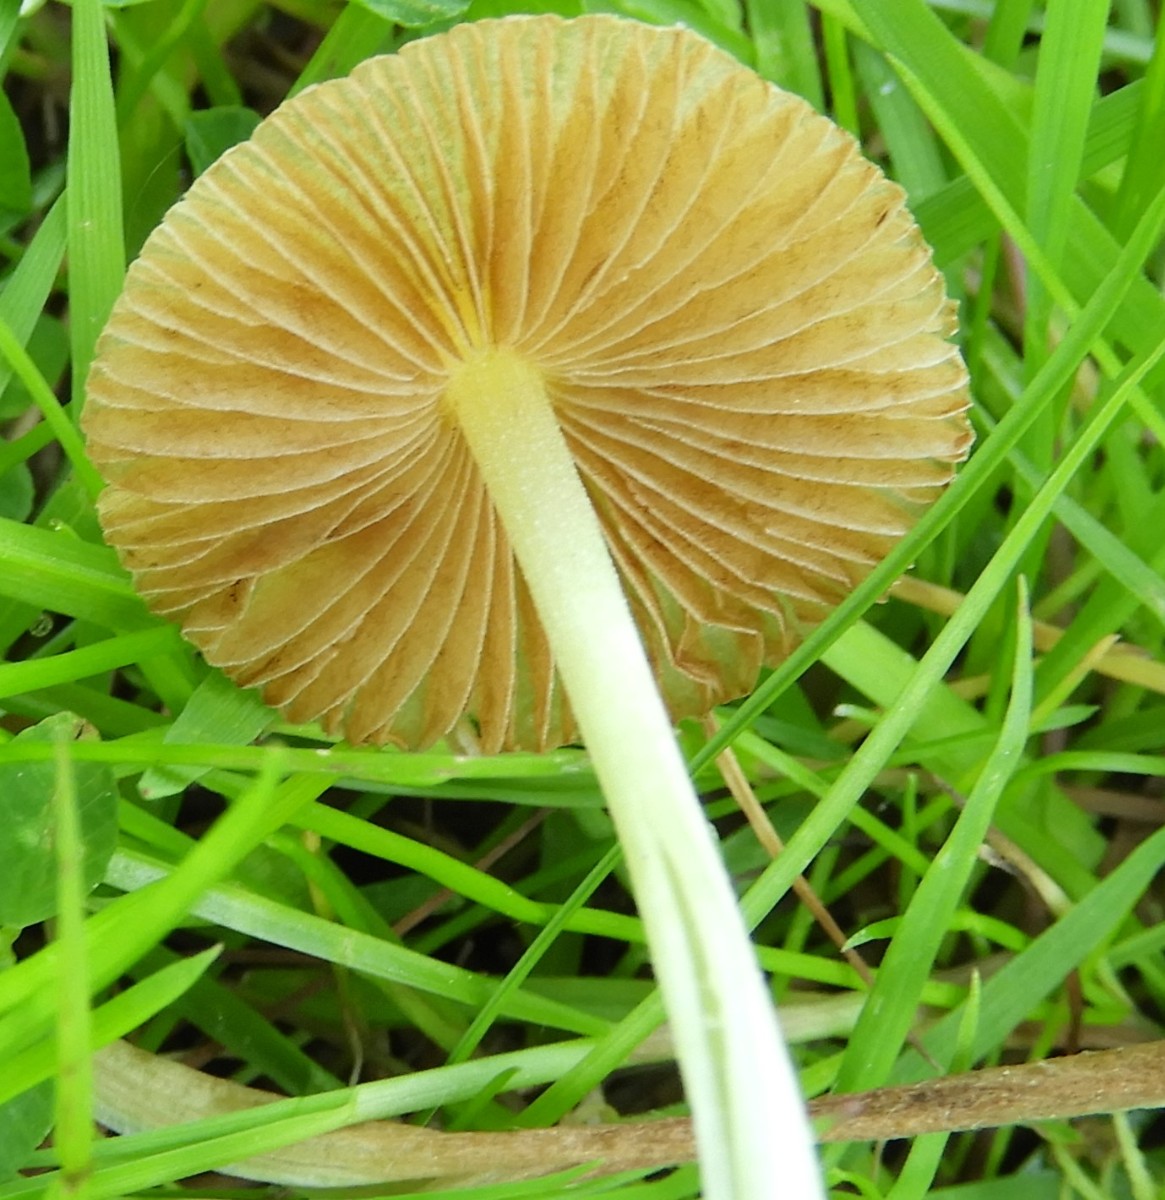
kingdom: Fungi
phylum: Basidiomycota
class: Agaricomycetes
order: Agaricales
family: Bolbitiaceae
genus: Bolbitius
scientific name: Bolbitius titubans
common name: almindelig gulhat
